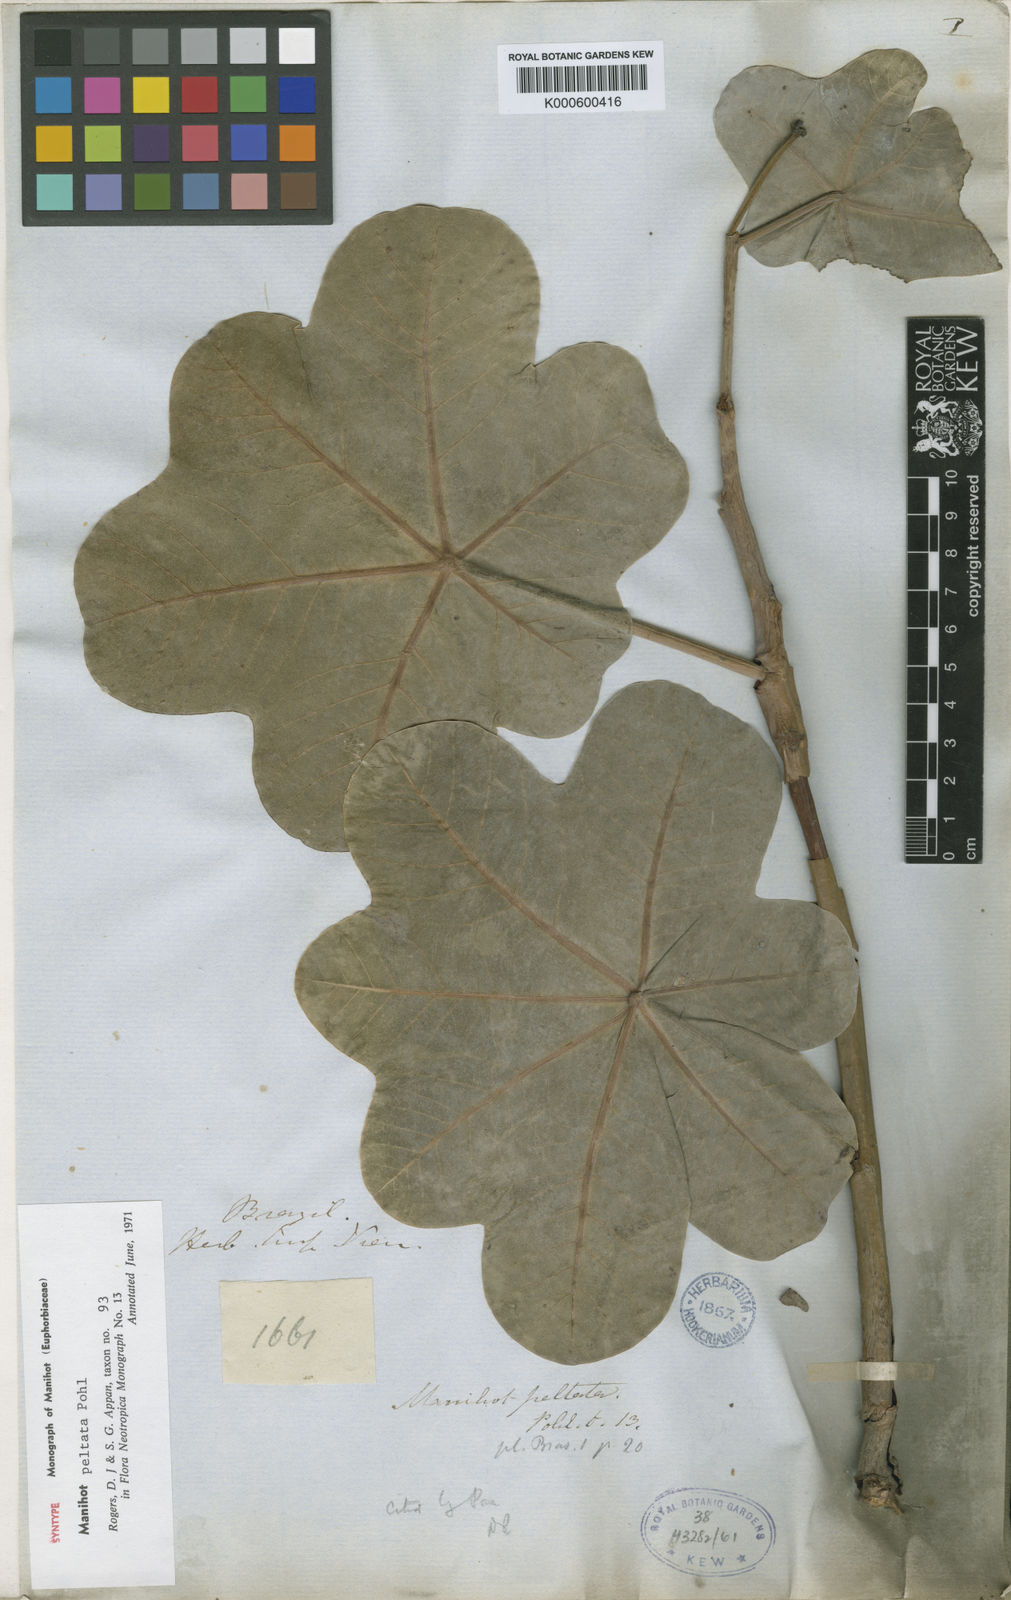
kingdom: Plantae
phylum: Tracheophyta
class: Magnoliopsida
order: Malpighiales
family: Euphorbiaceae
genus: Manihot
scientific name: Manihot peltata
